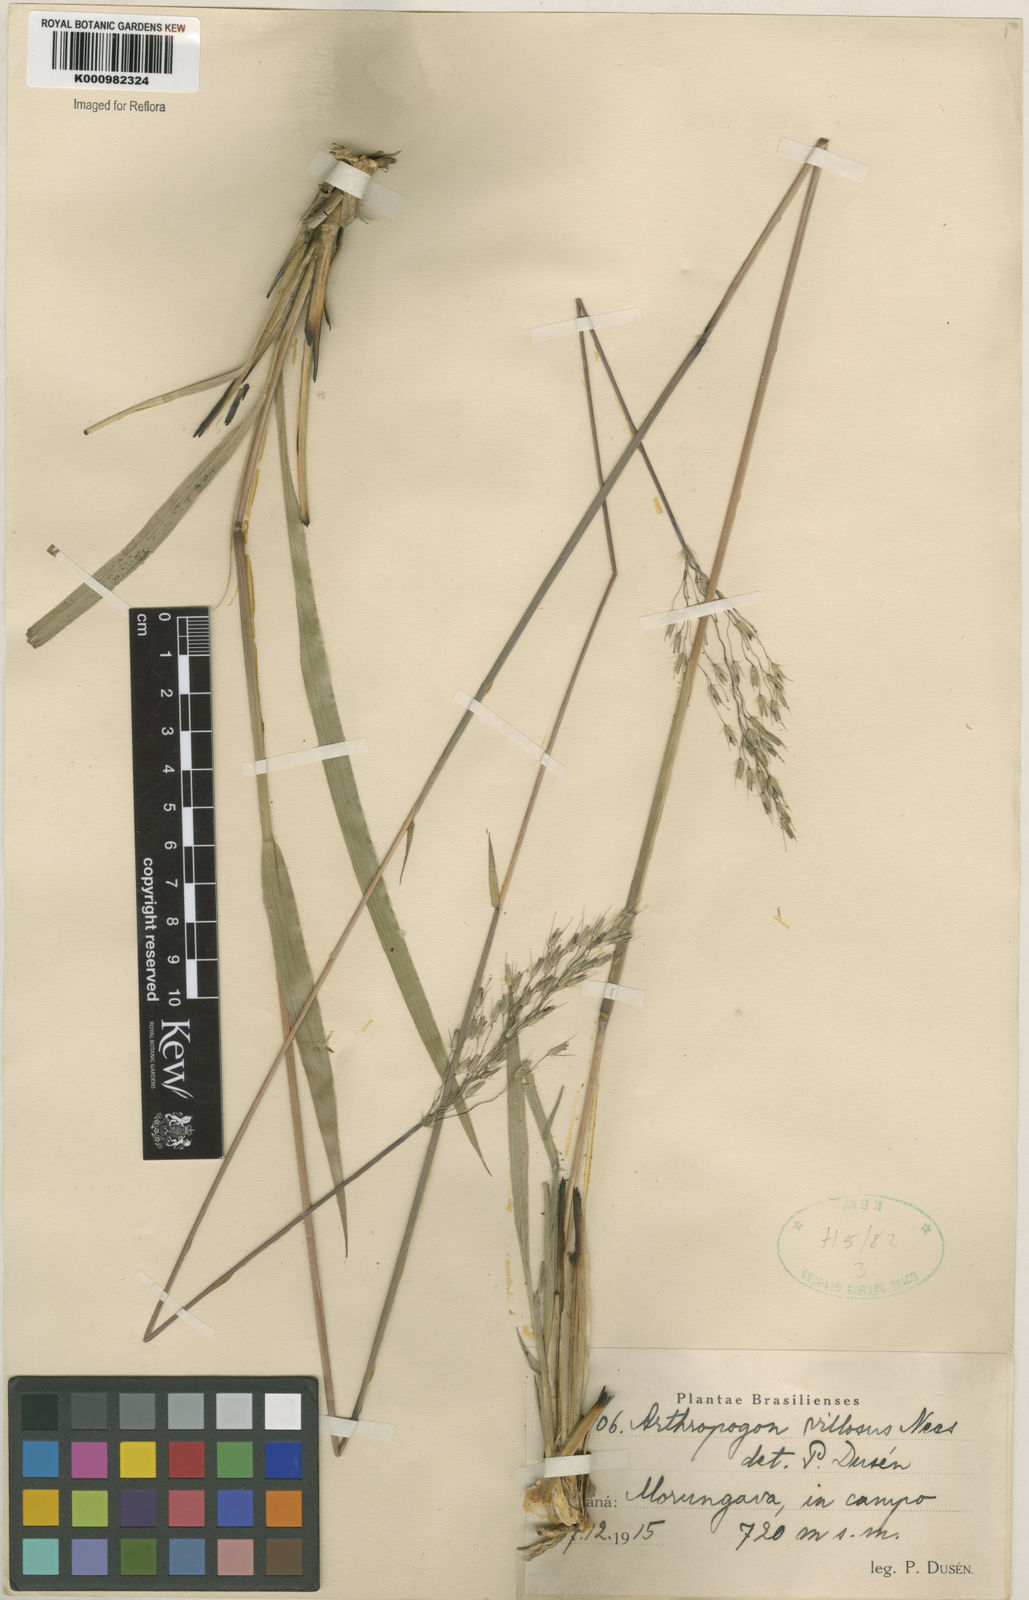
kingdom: Plantae
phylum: Tracheophyta
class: Liliopsida
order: Poales
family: Poaceae
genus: Arthropogon
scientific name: Arthropogon villosus
